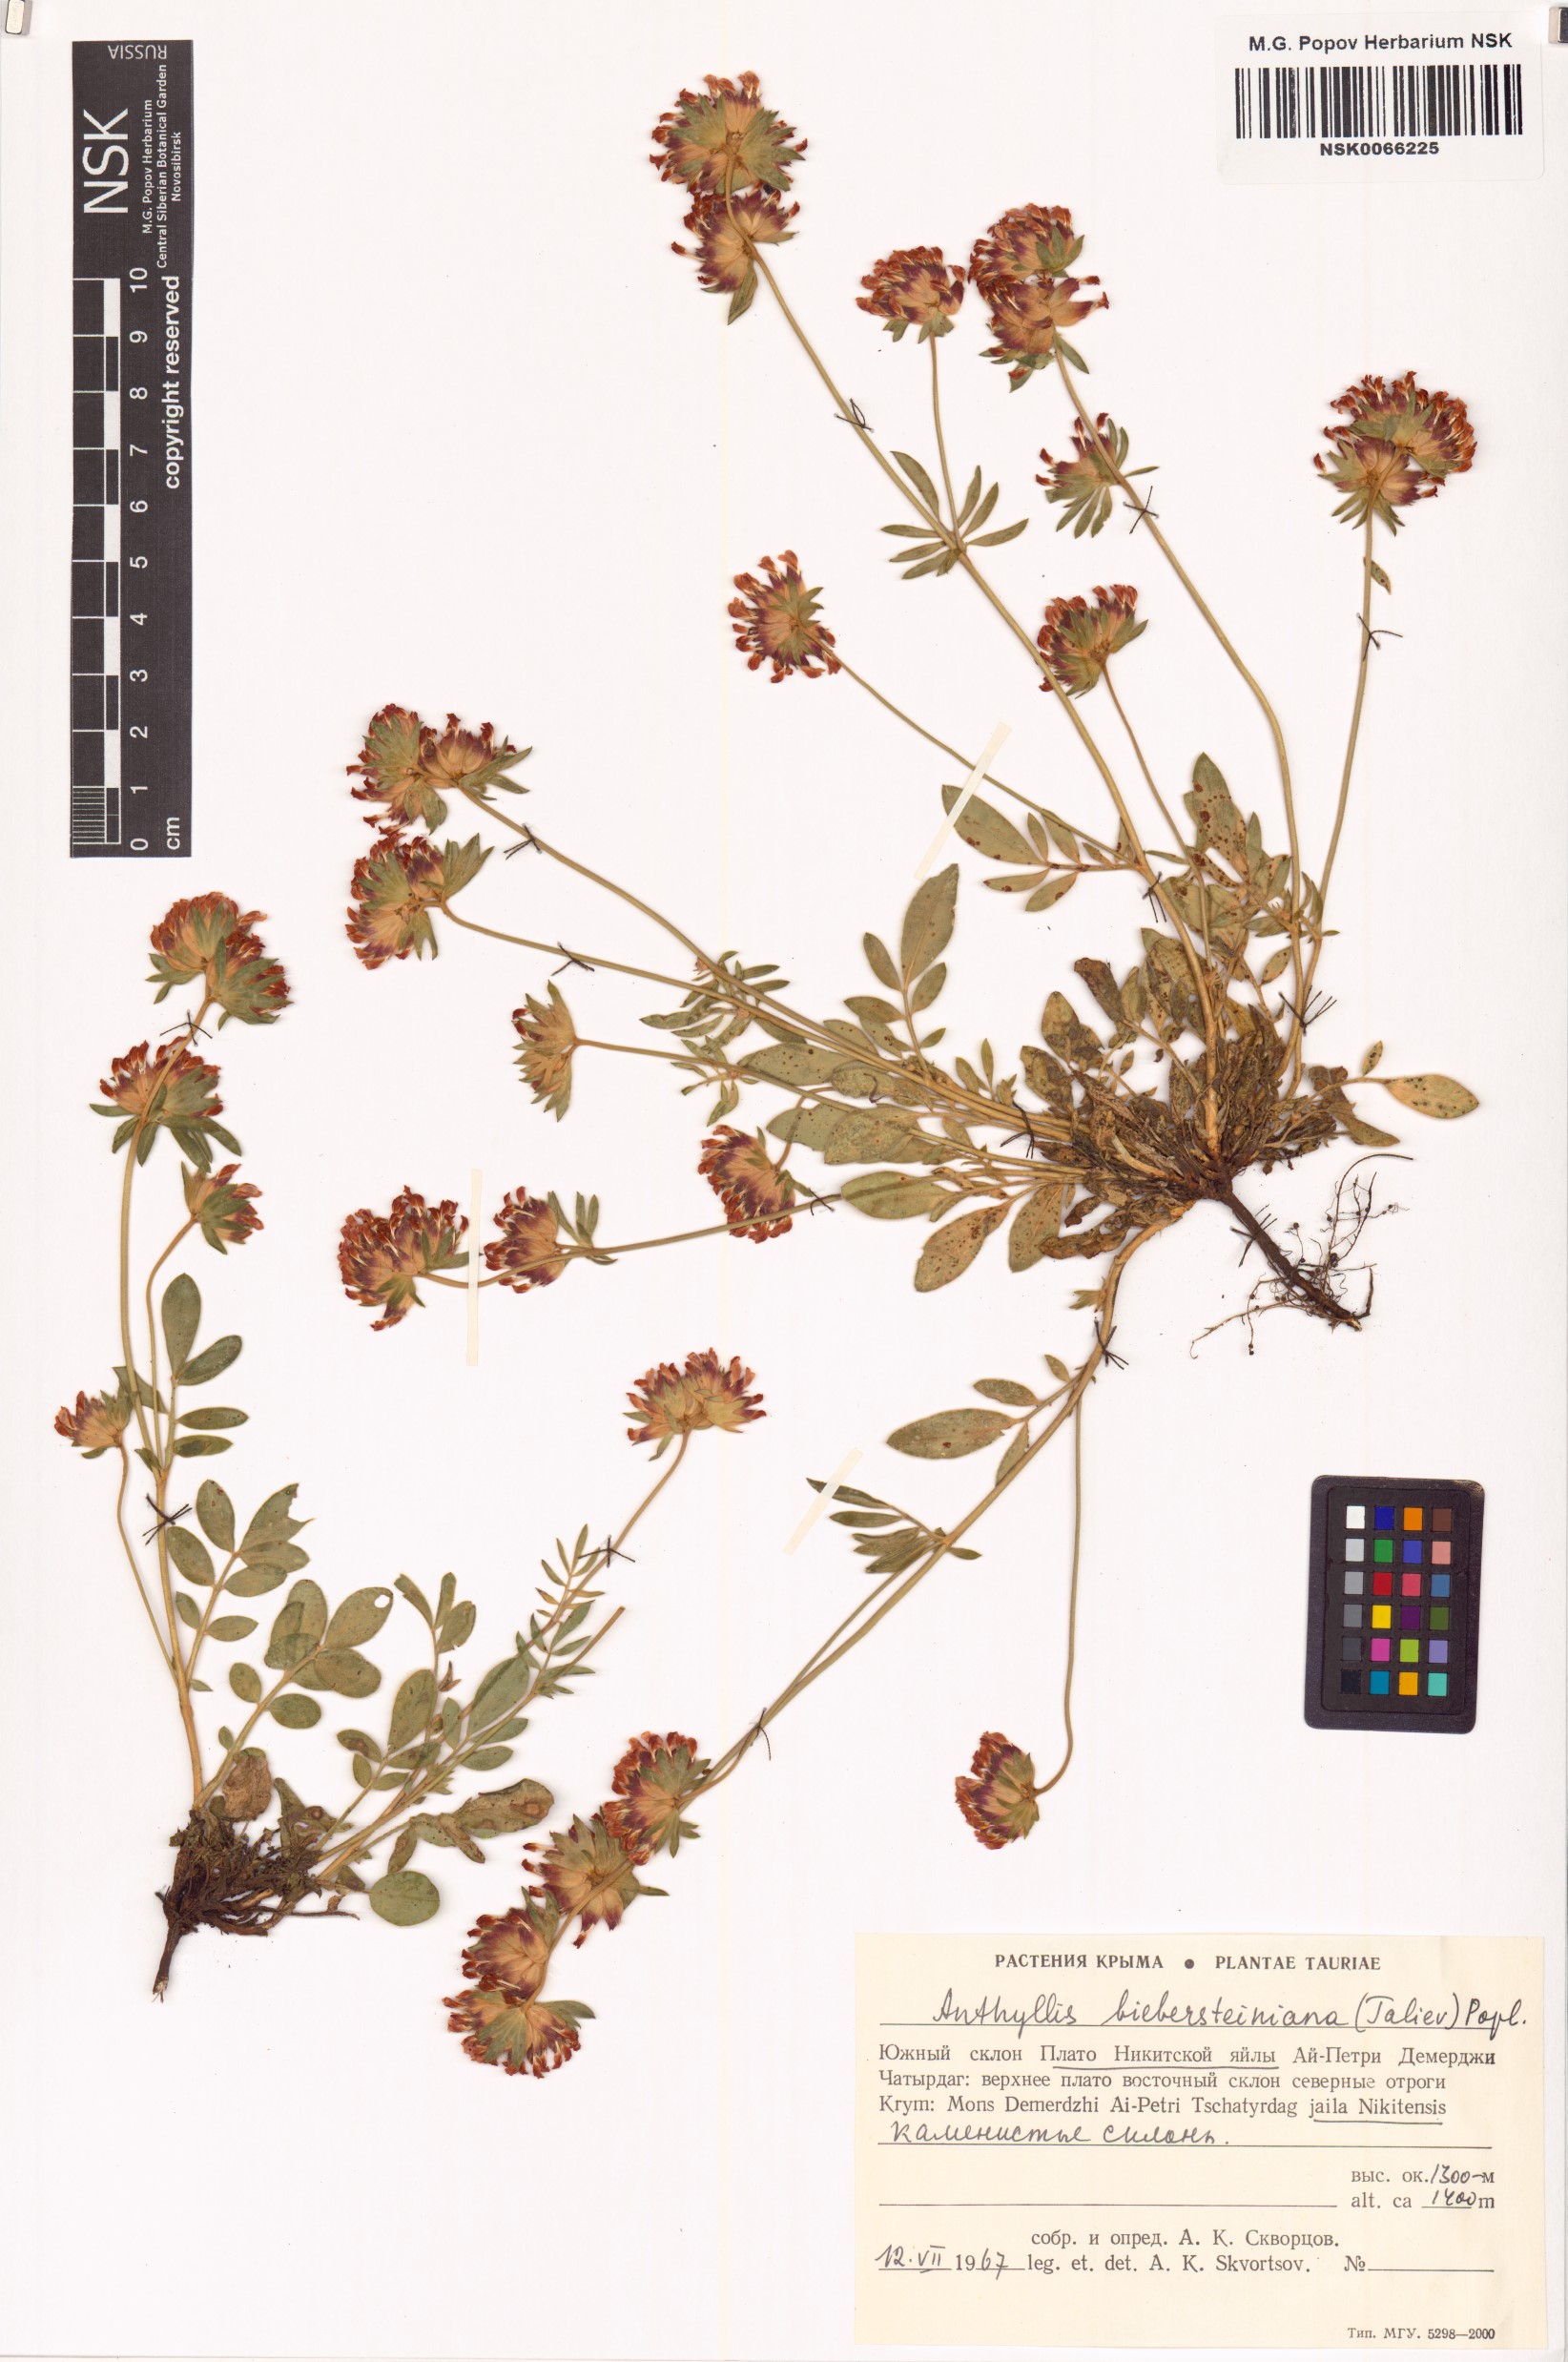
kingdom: Plantae
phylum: Tracheophyta
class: Magnoliopsida
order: Fabales
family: Fabaceae
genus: Anthyllis
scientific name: Anthyllis vulneraria
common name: Kidney vetch
